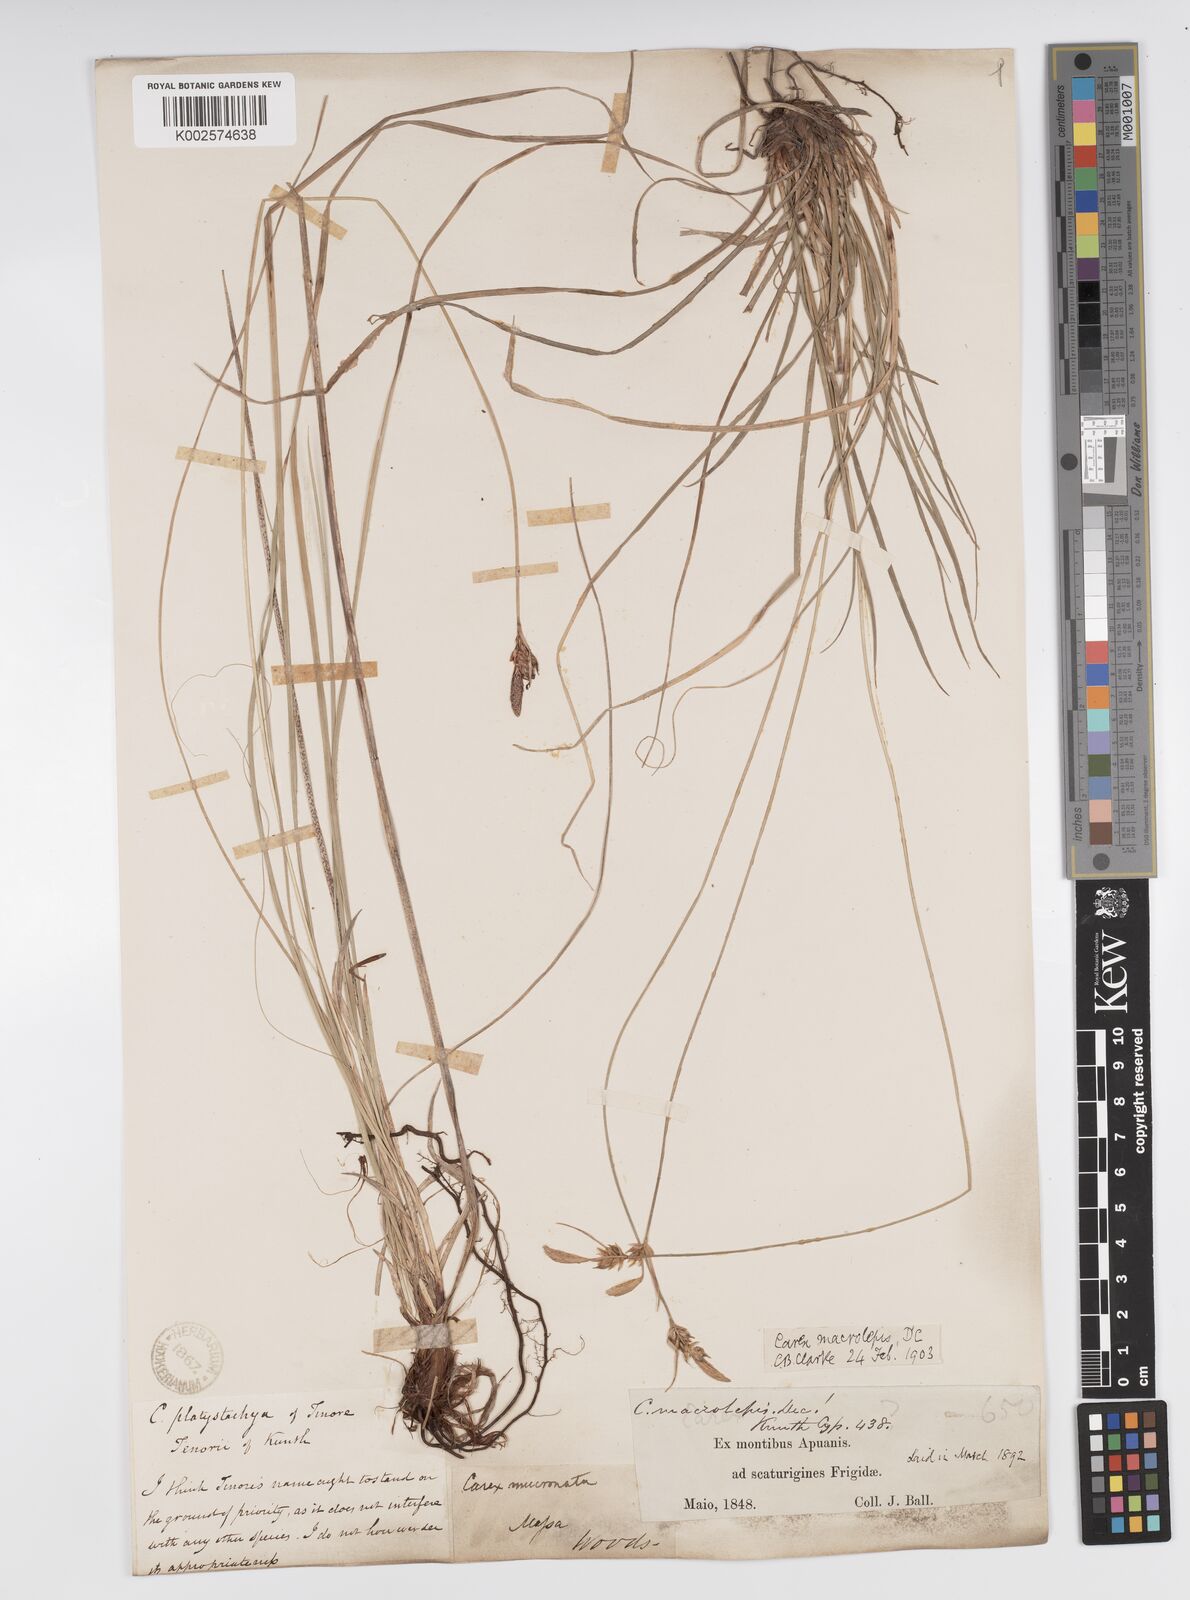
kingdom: Plantae
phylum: Tracheophyta
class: Liliopsida
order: Poales
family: Cyperaceae
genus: Carex
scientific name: Carex macrolepis
